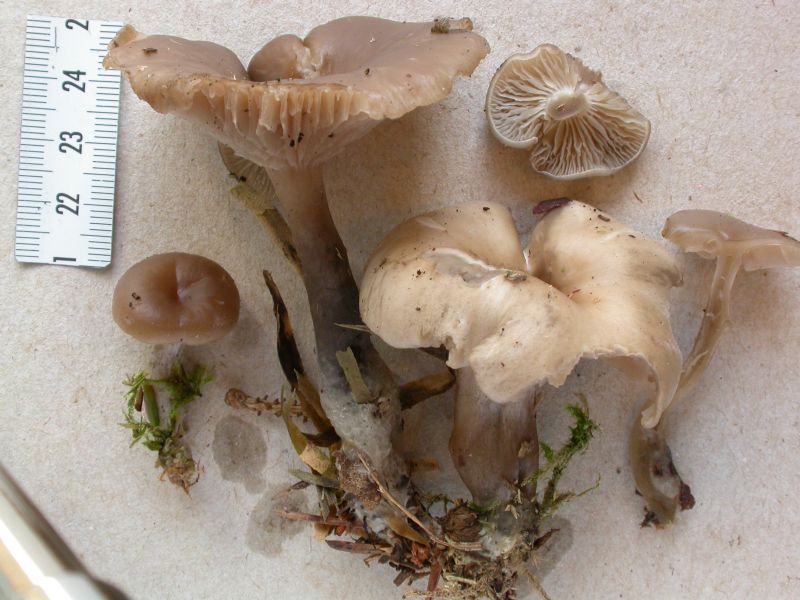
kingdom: Fungi
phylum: Basidiomycota
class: Agaricomycetes
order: Agaricales
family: Tricholomataceae
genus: Clitocybe
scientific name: Clitocybe metachroa
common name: grå tragthat
